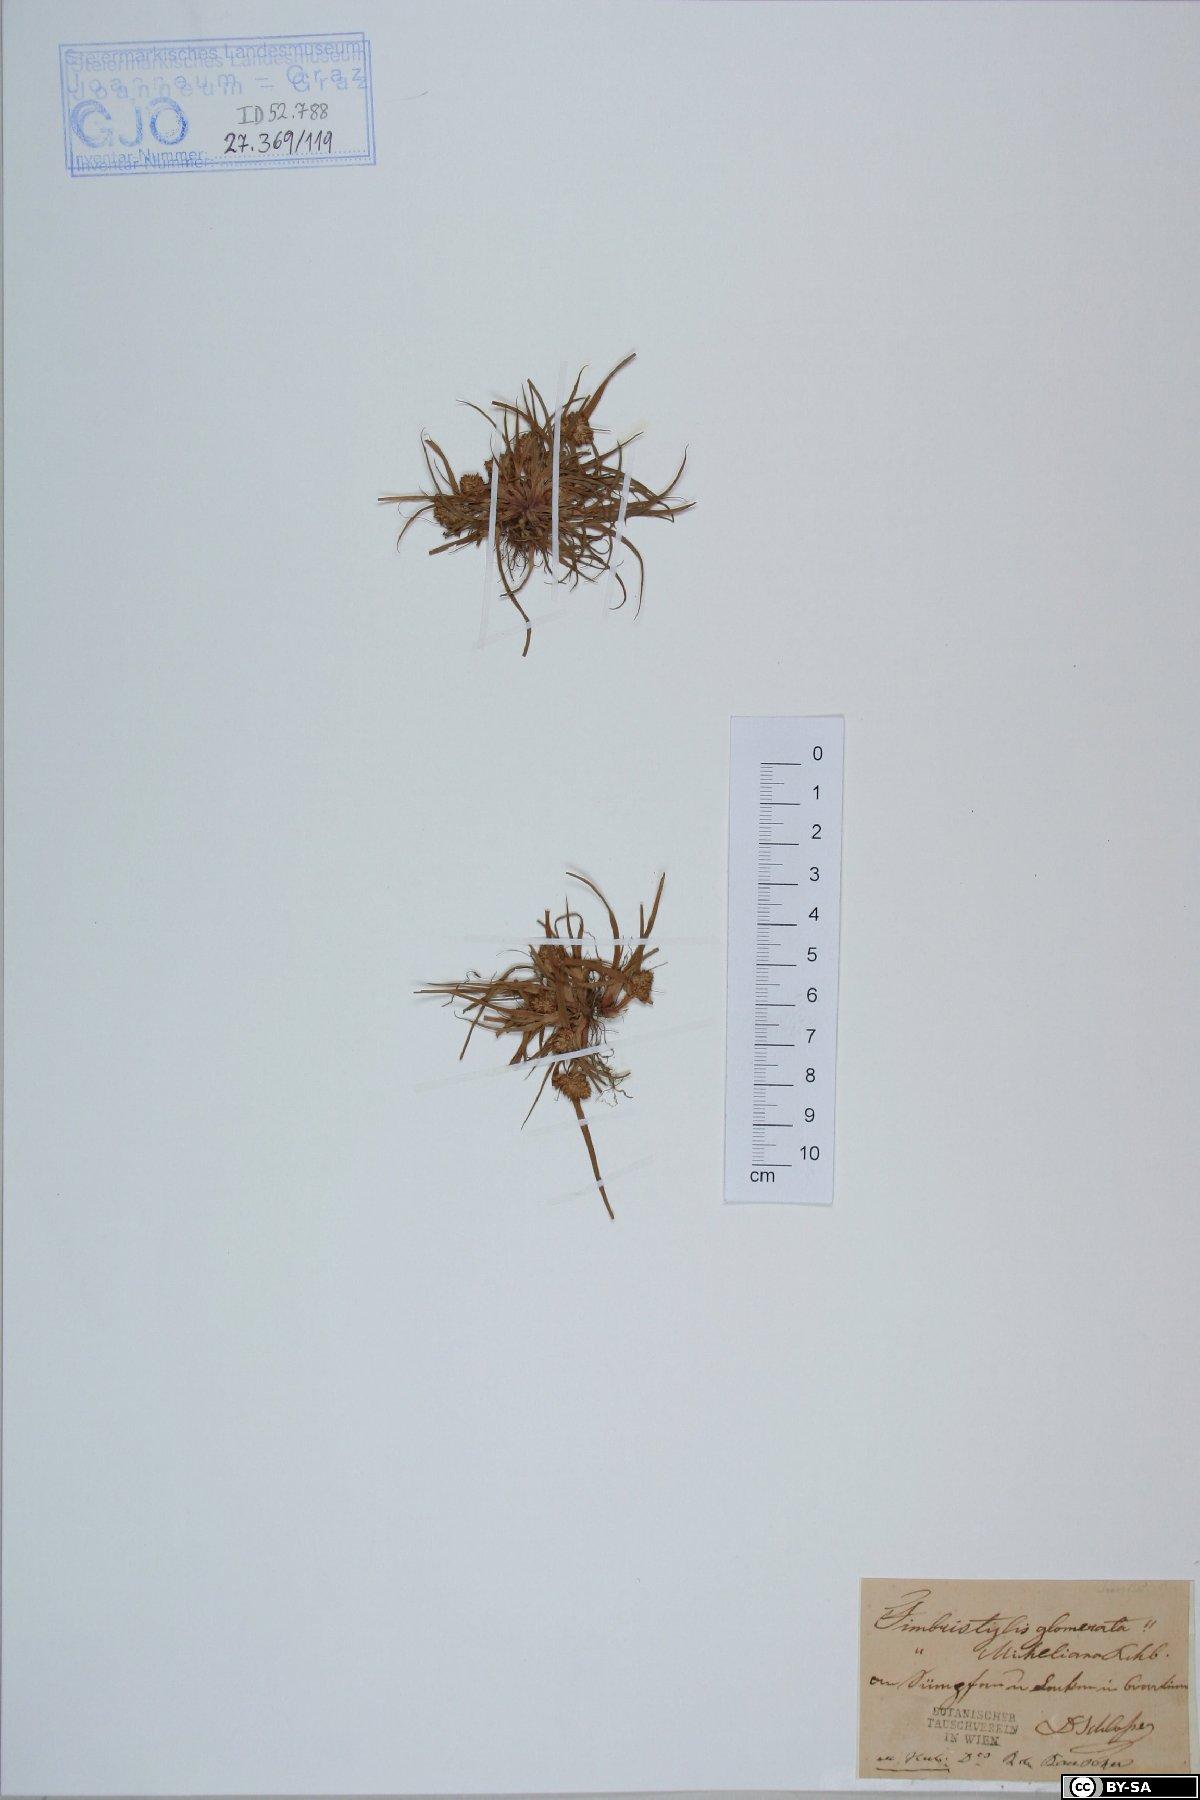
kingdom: Plantae
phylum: Tracheophyta
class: Liliopsida
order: Poales
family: Cyperaceae
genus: Cyperus
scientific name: Cyperus michelianus
